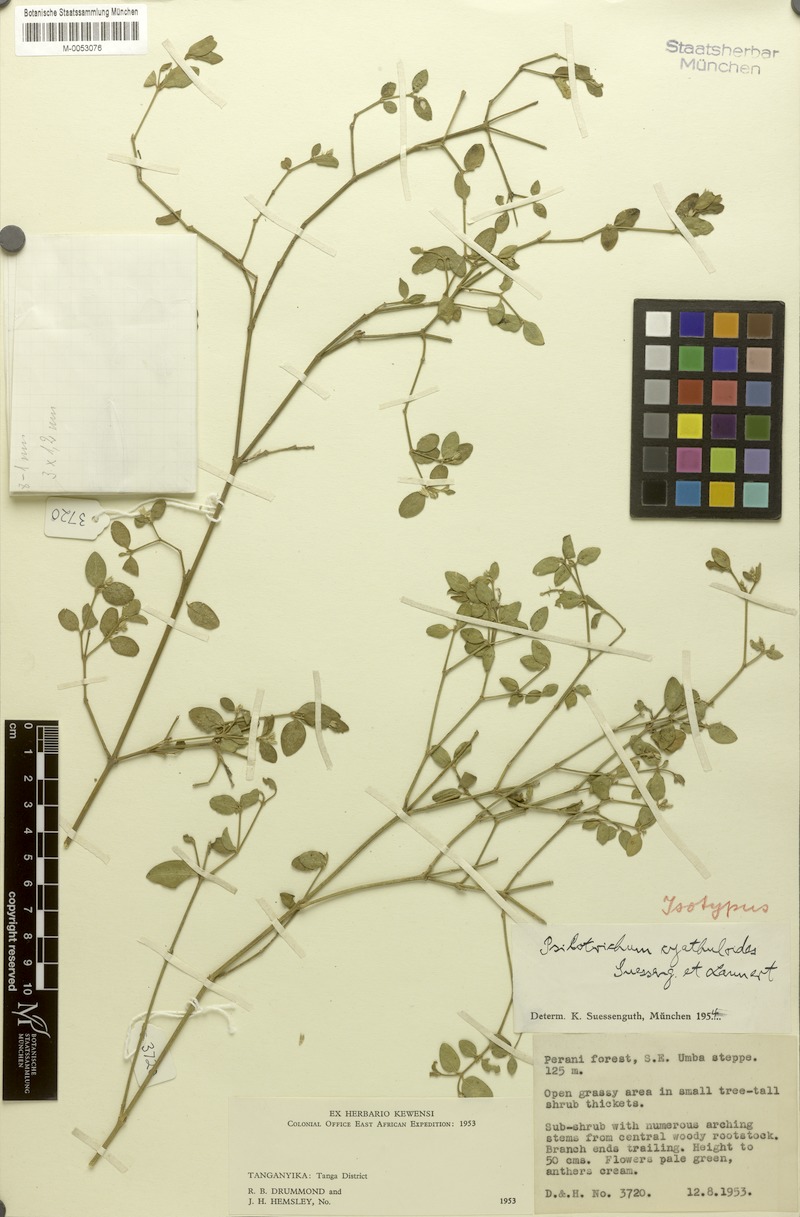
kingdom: Plantae
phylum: Tracheophyta
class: Magnoliopsida
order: Caryophyllales
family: Amaranthaceae
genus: Psilotrichum
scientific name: Psilotrichum cyathuloides
